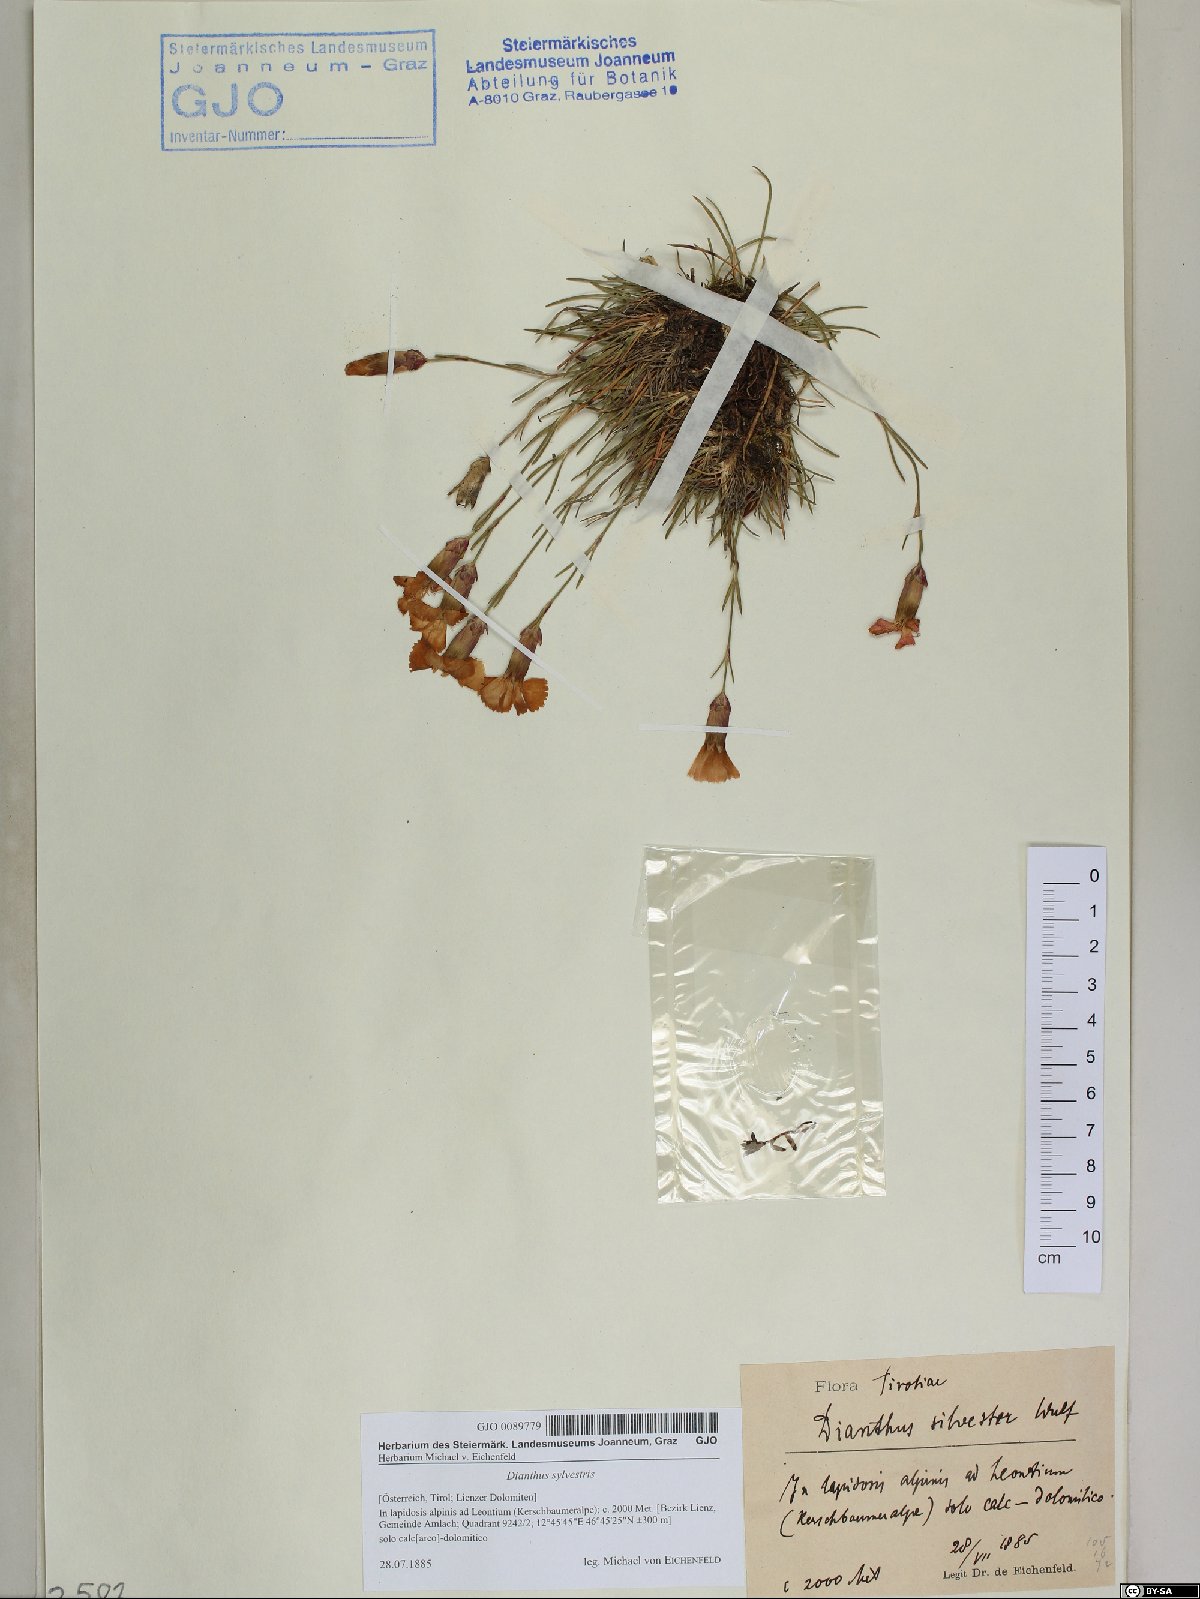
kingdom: Plantae
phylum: Tracheophyta
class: Magnoliopsida
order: Caryophyllales
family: Caryophyllaceae
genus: Dianthus
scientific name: Dianthus sylvestris
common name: Wood pink
